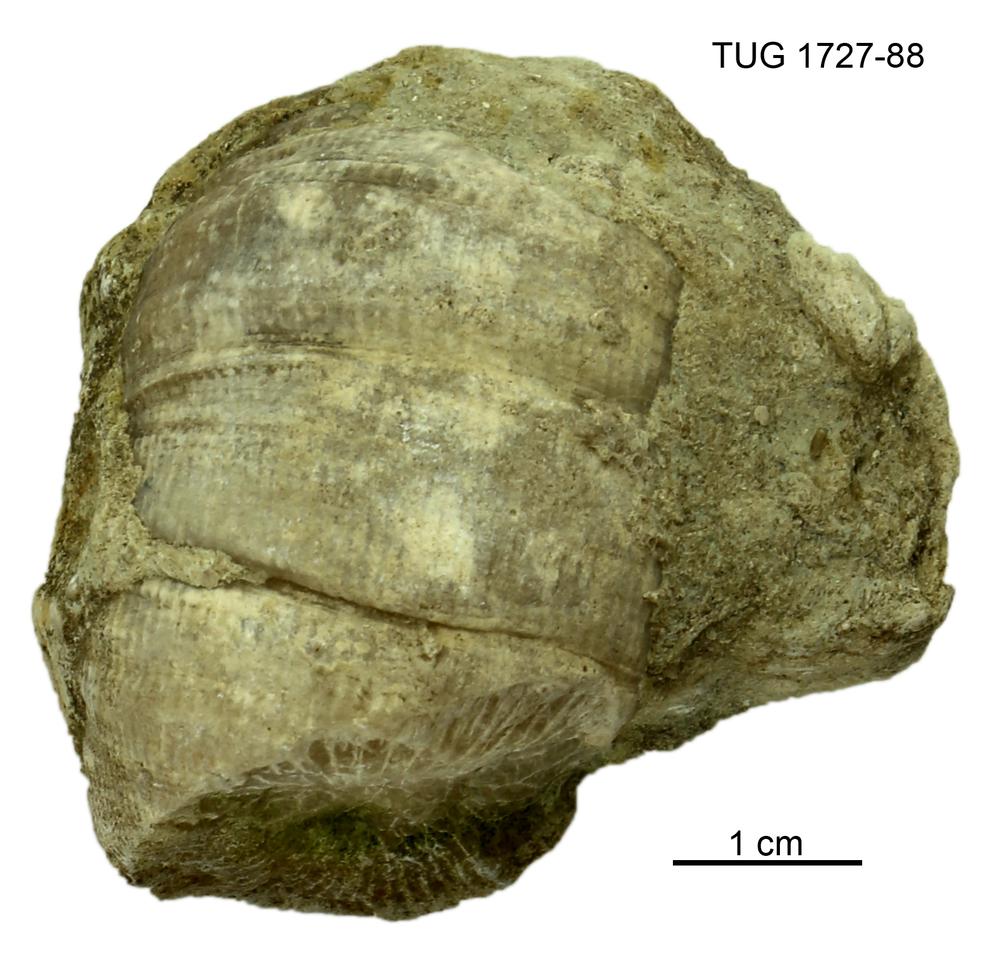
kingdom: Animalia
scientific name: Animalia
